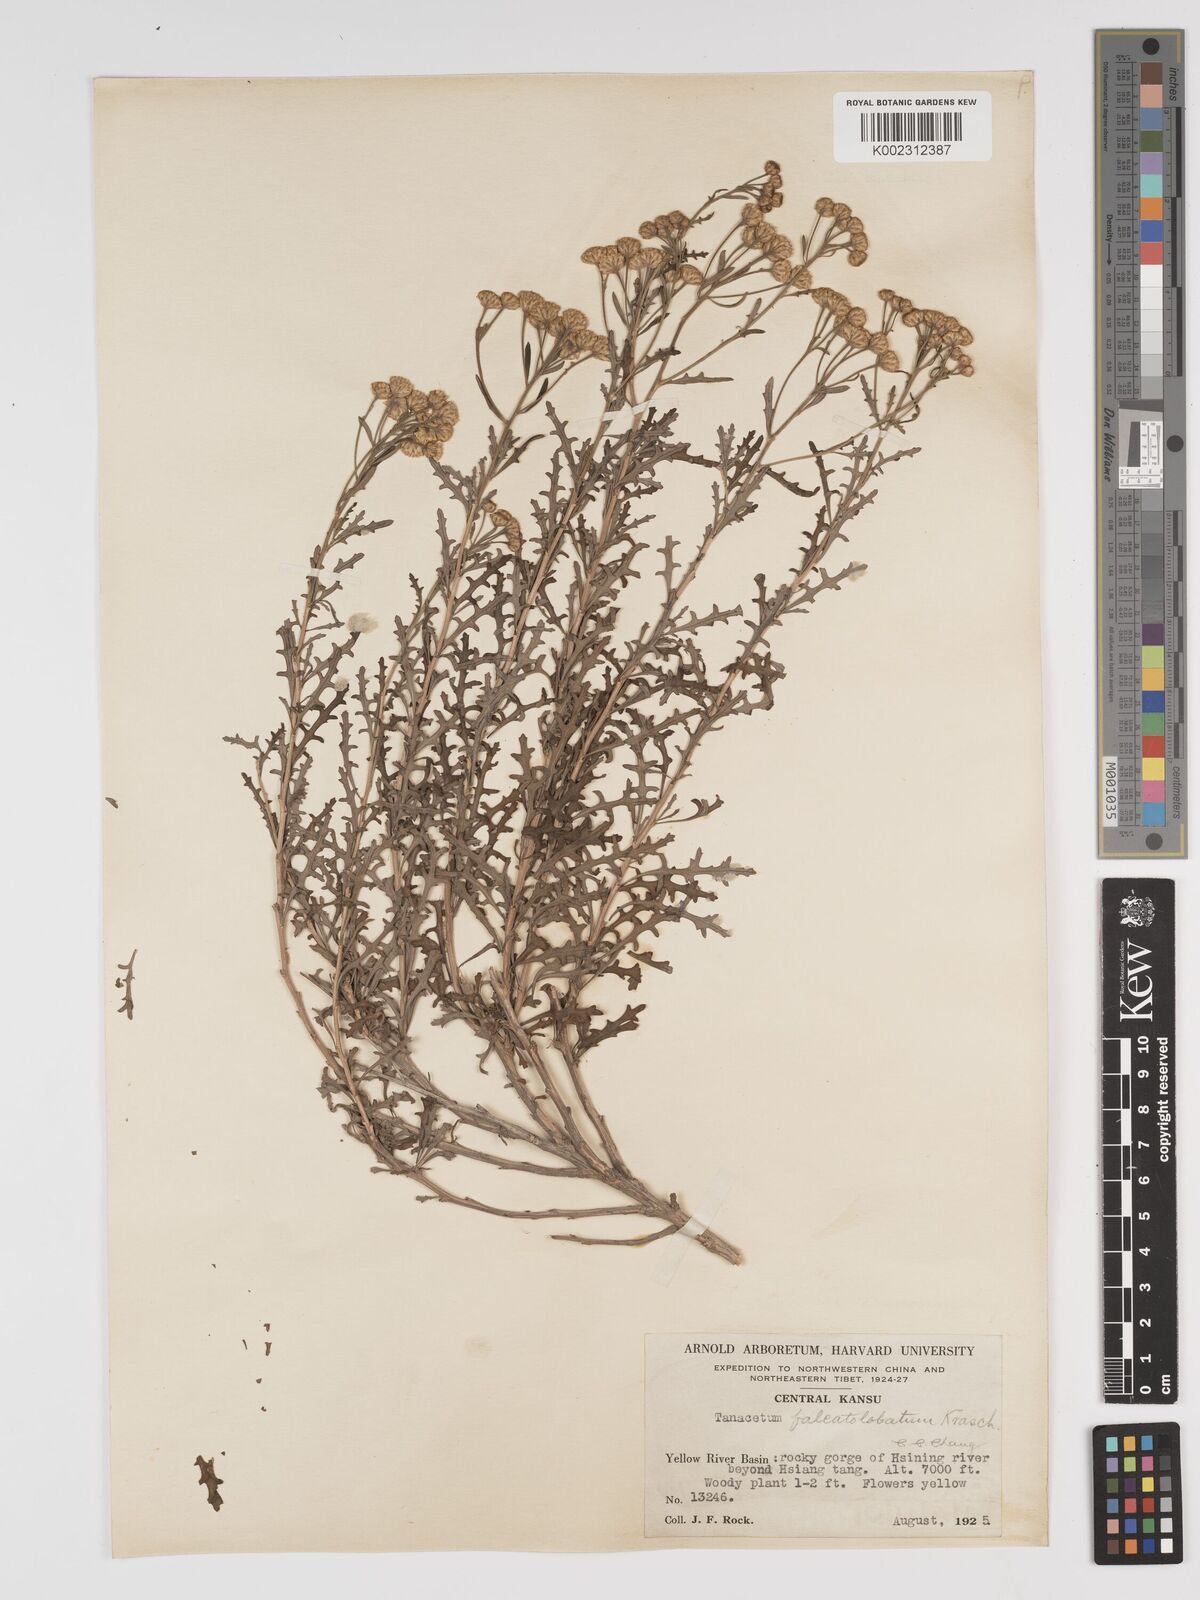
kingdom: Plantae
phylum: Tracheophyta
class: Magnoliopsida
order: Asterales
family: Asteraceae
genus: Cancrinia
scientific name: Cancrinia maximowiczii
